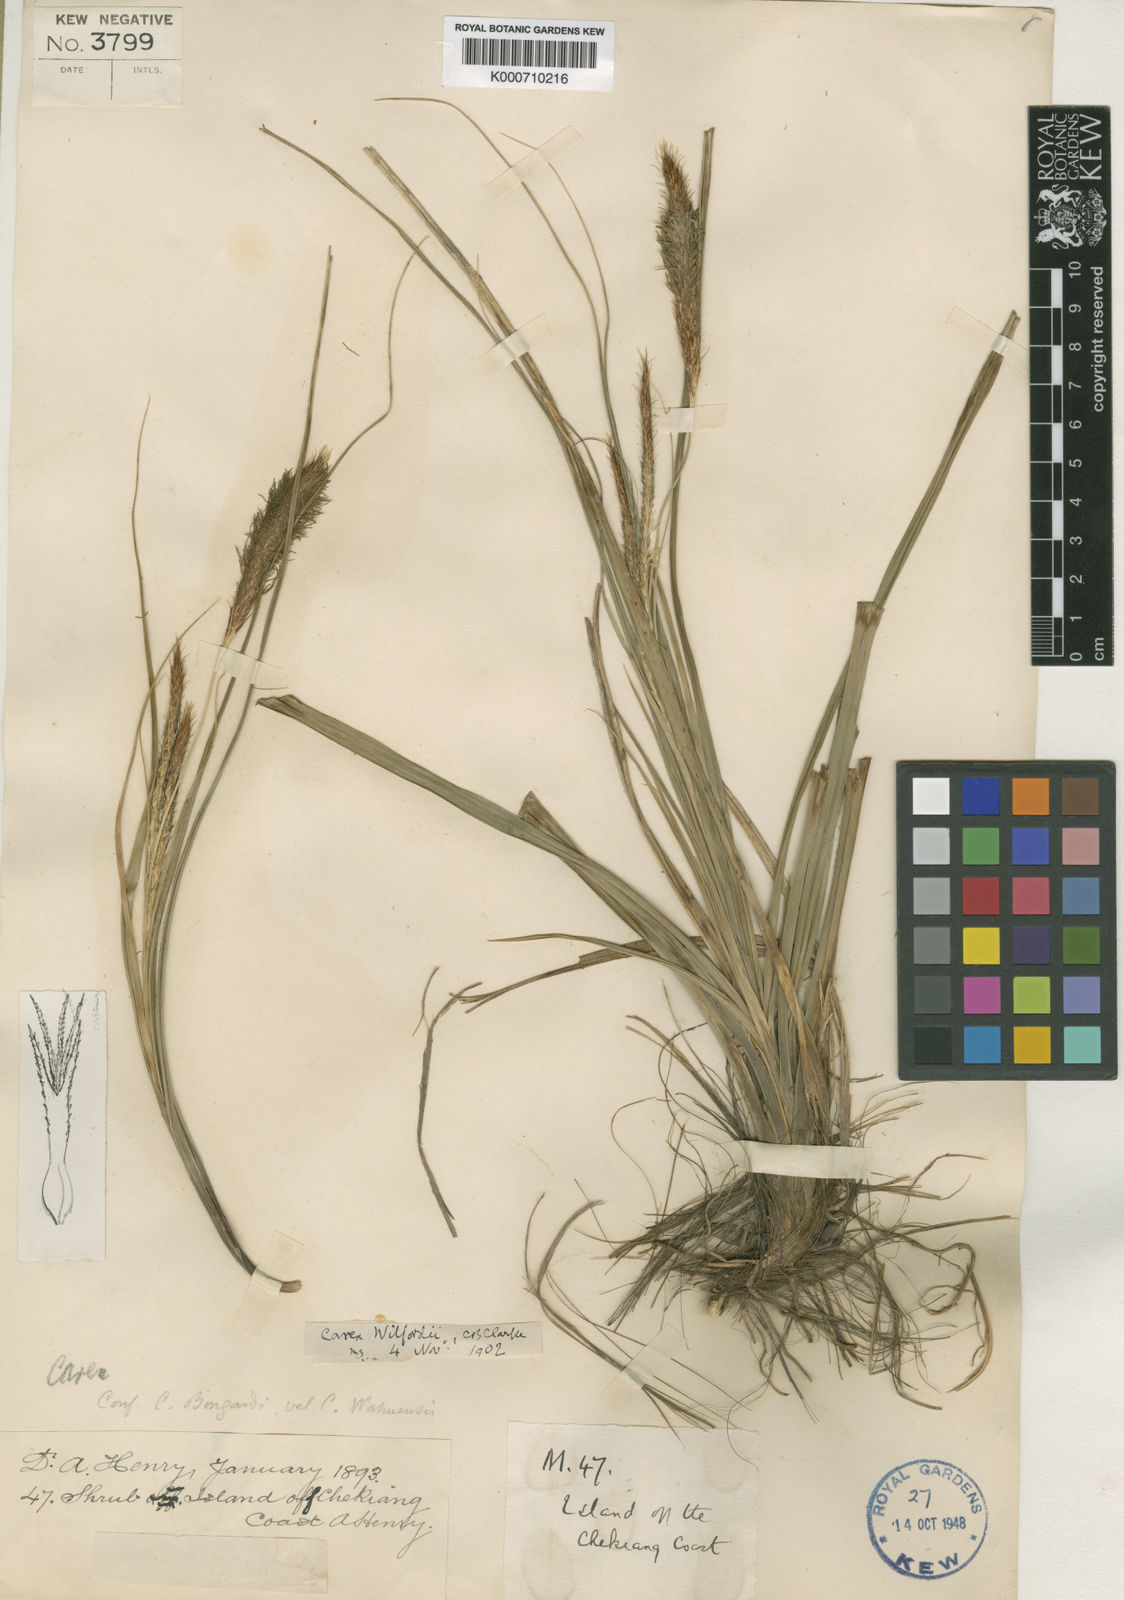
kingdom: Plantae
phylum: Tracheophyta
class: Liliopsida
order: Poales
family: Cyperaceae
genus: Carex
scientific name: Carex wahuensis
